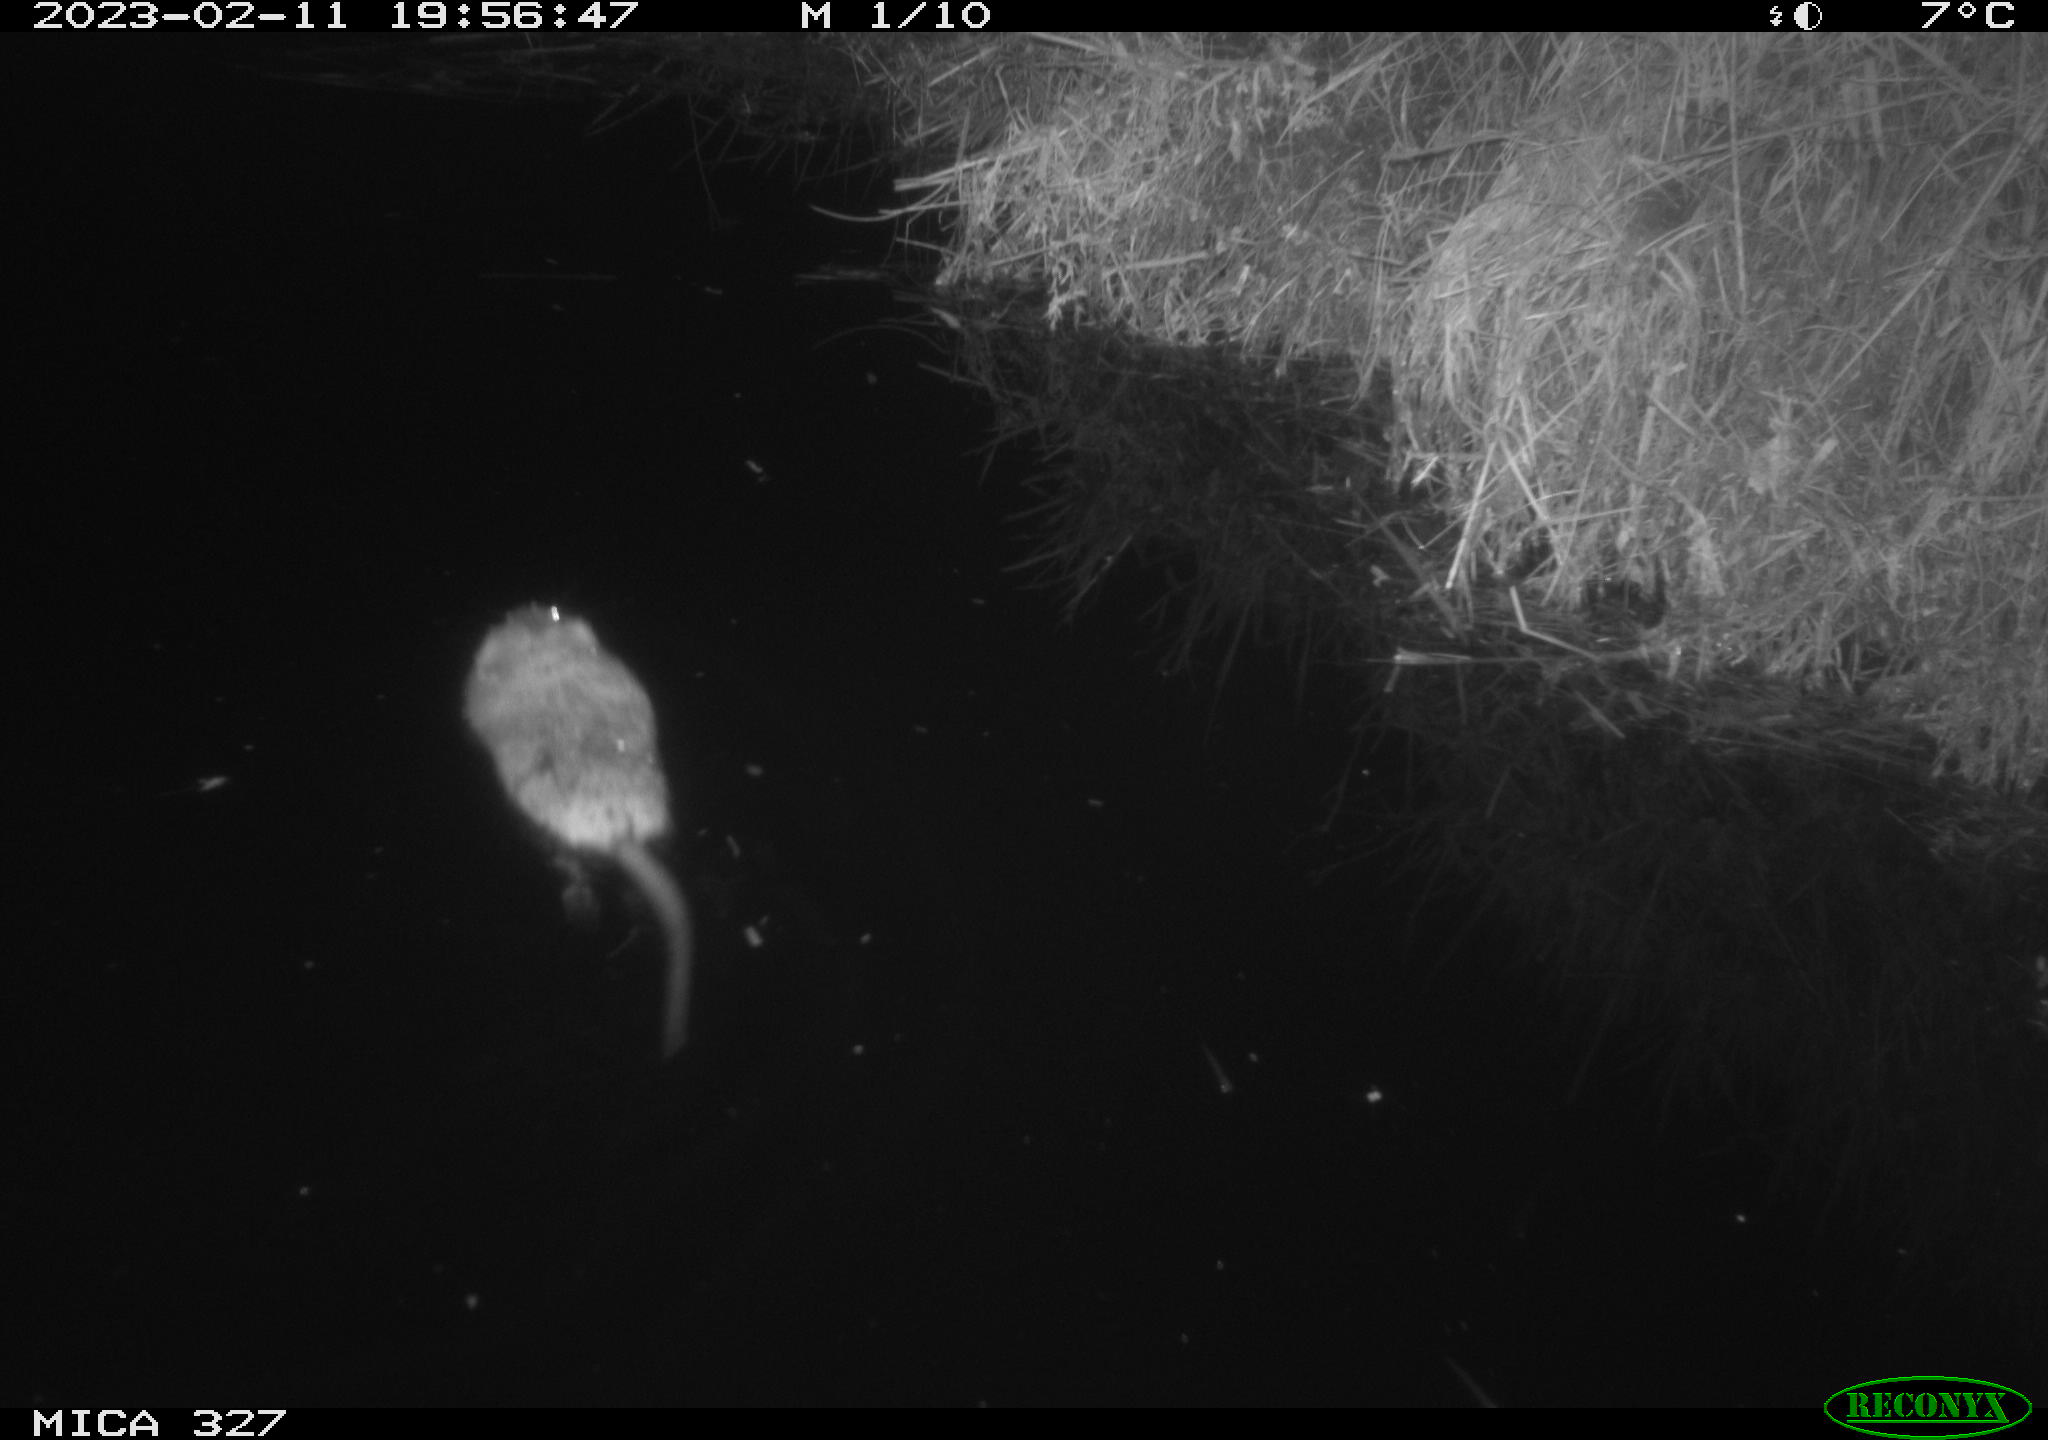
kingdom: Animalia
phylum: Chordata
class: Mammalia
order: Rodentia
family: Cricetidae
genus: Ondatra
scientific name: Ondatra zibethicus
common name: Muskrat
